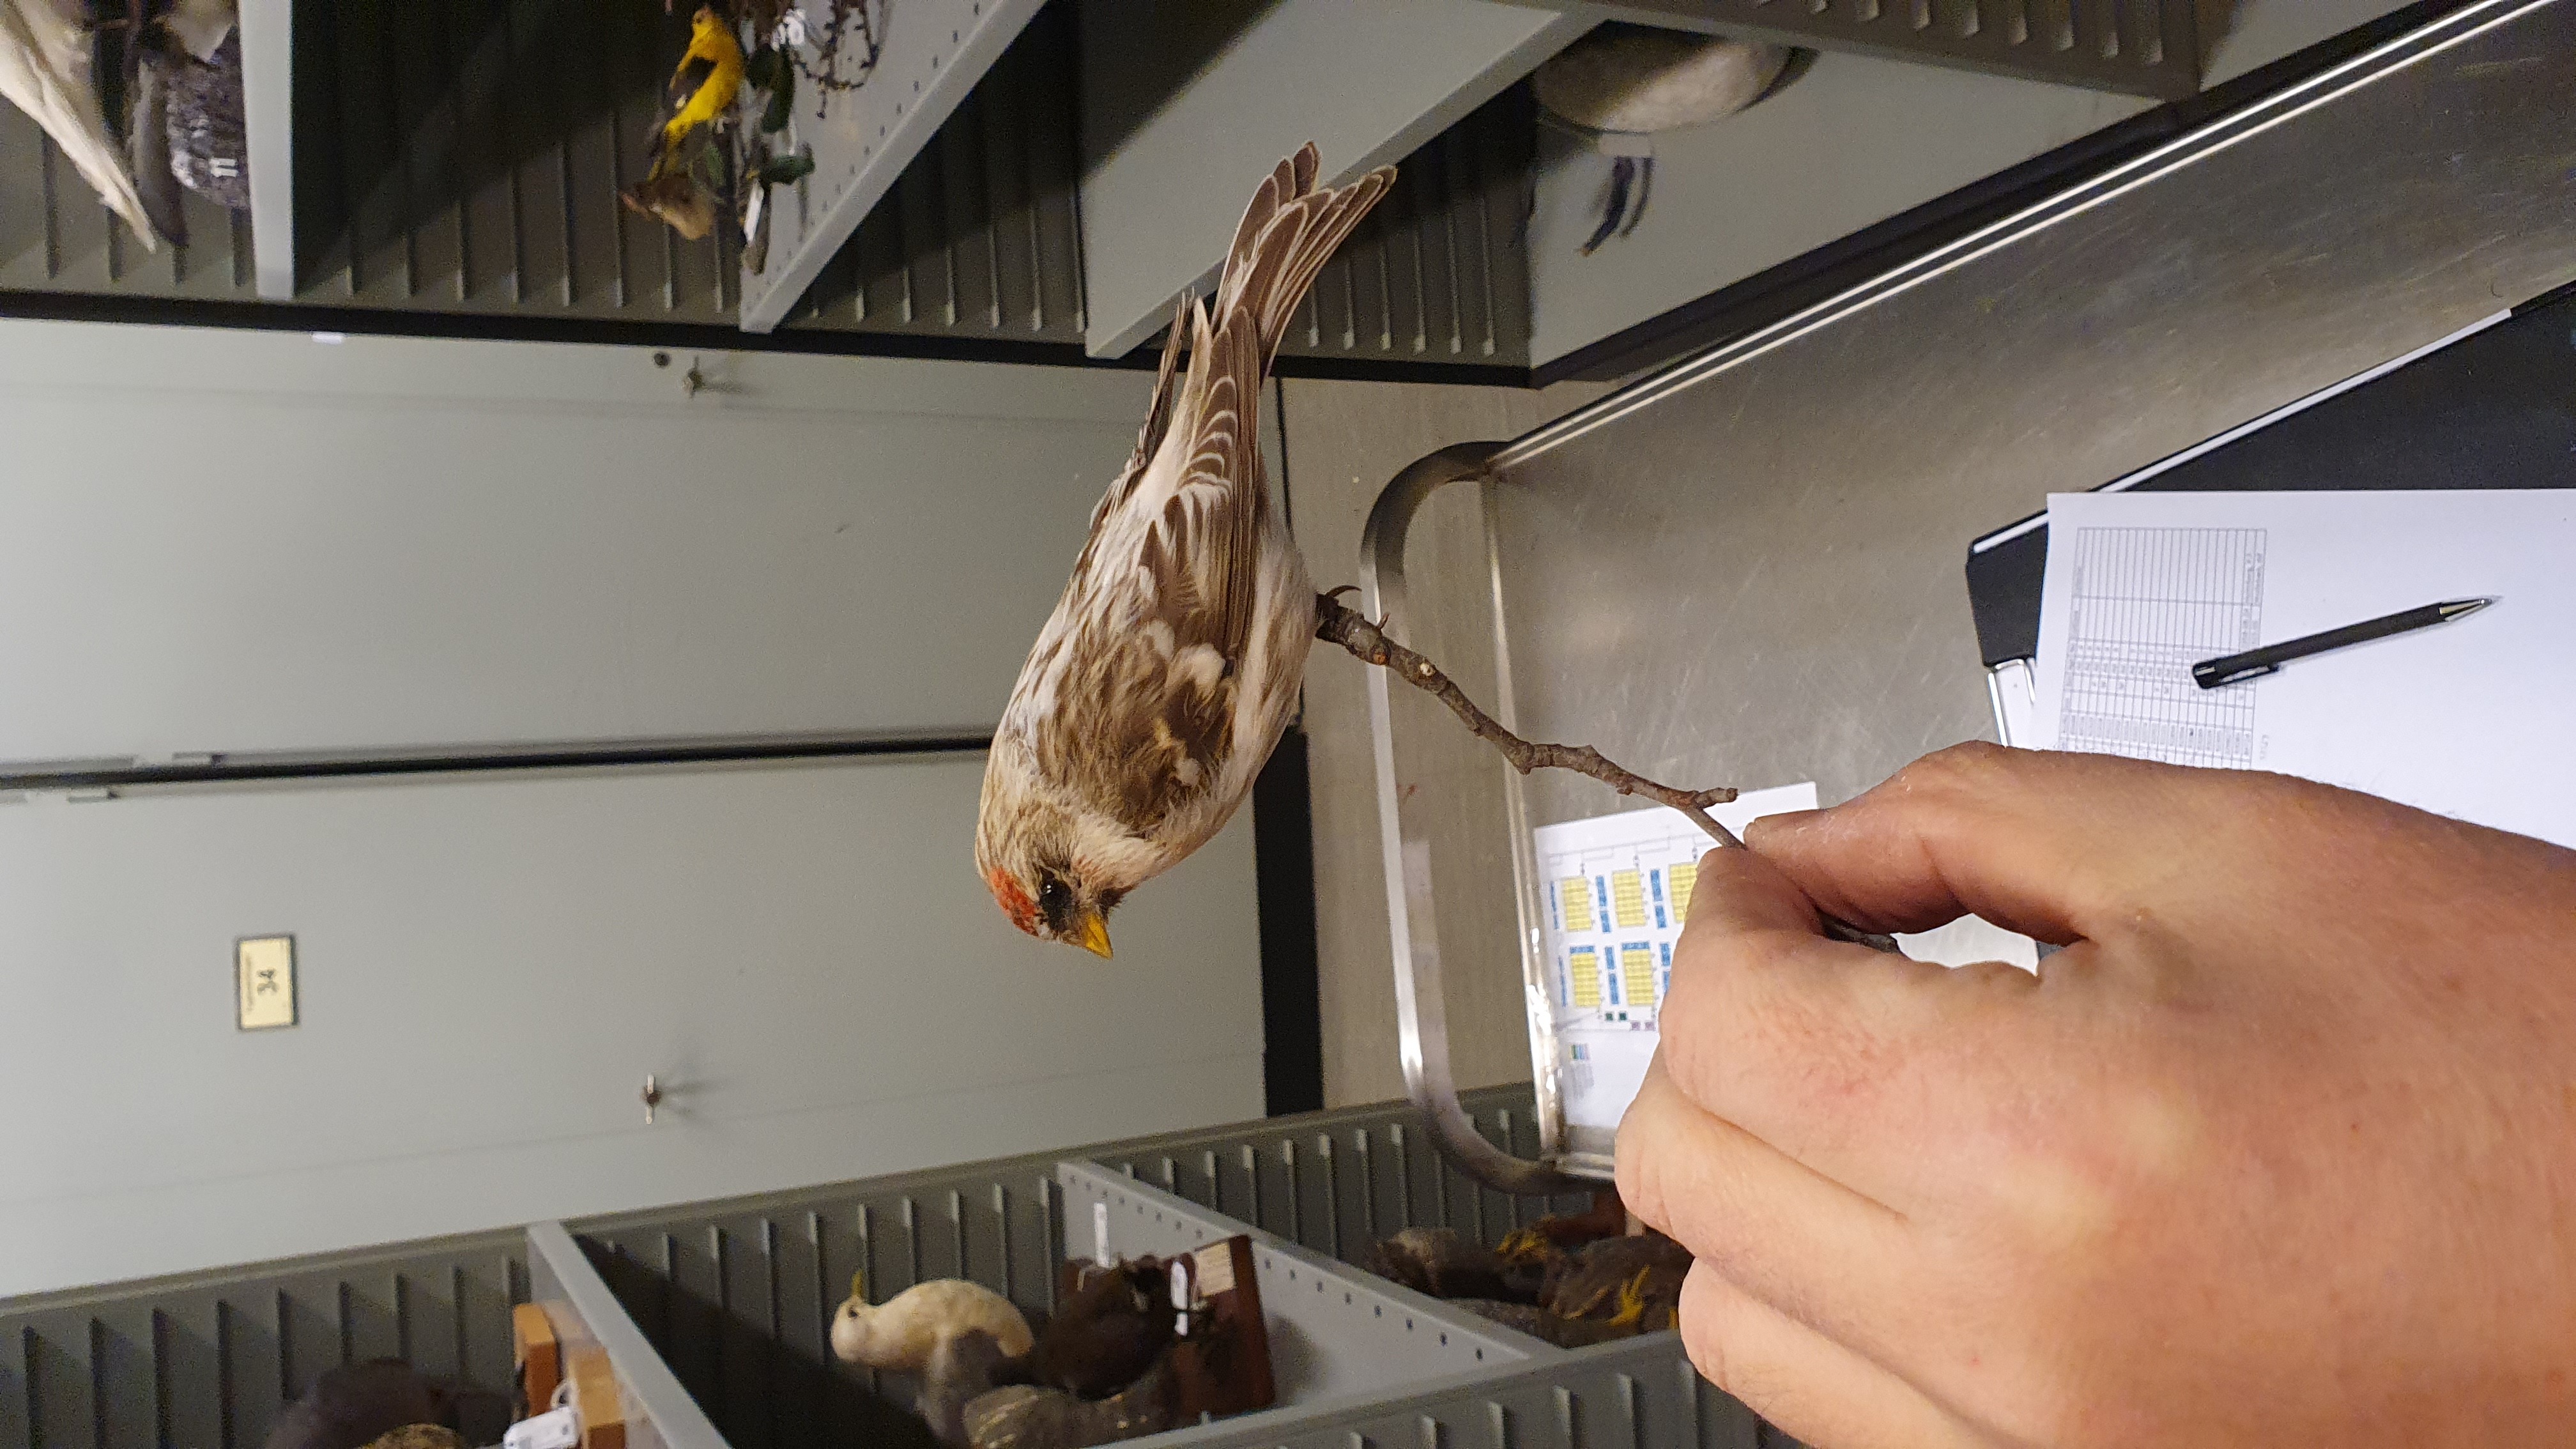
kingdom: Animalia
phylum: Chordata
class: Aves
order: Passeriformes
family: Fringillidae
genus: Acanthis
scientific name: Acanthis hornemanni
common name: Arctic redpoll
